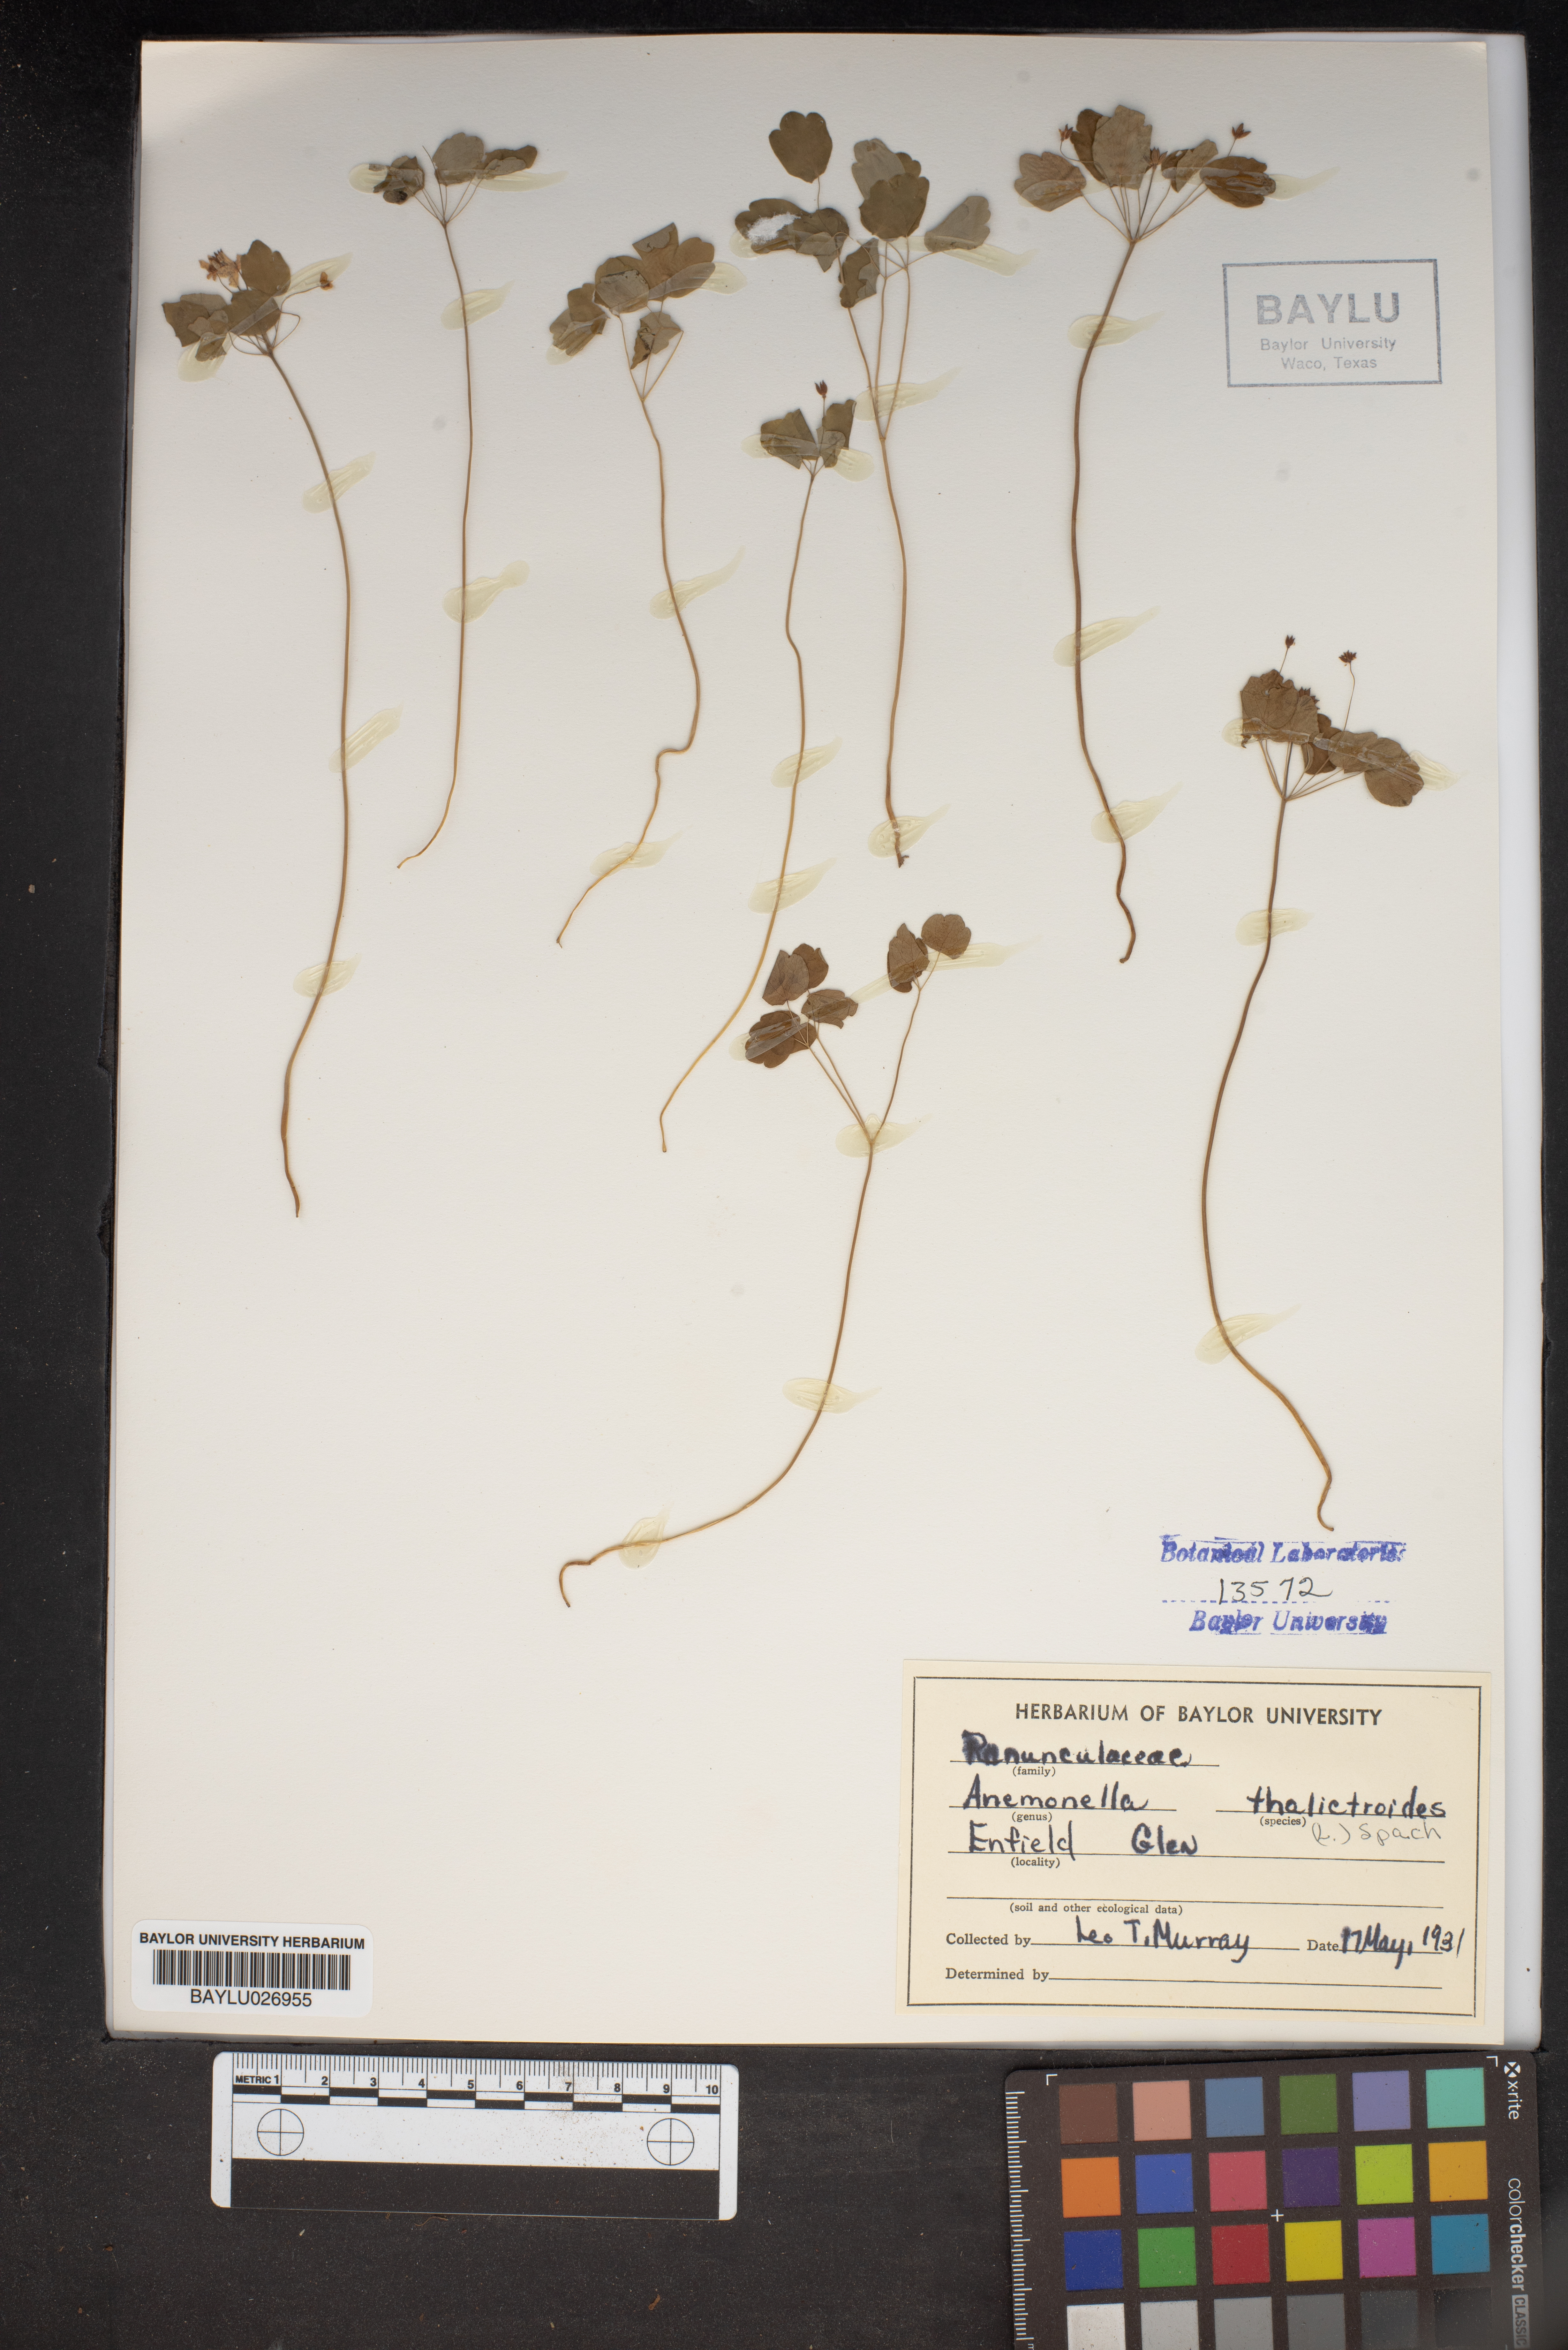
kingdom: Plantae
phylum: Tracheophyta
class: Magnoliopsida
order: Ranunculales
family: Ranunculaceae
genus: Thalictrum
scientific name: Thalictrum thalictroides
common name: Rue-anemone
